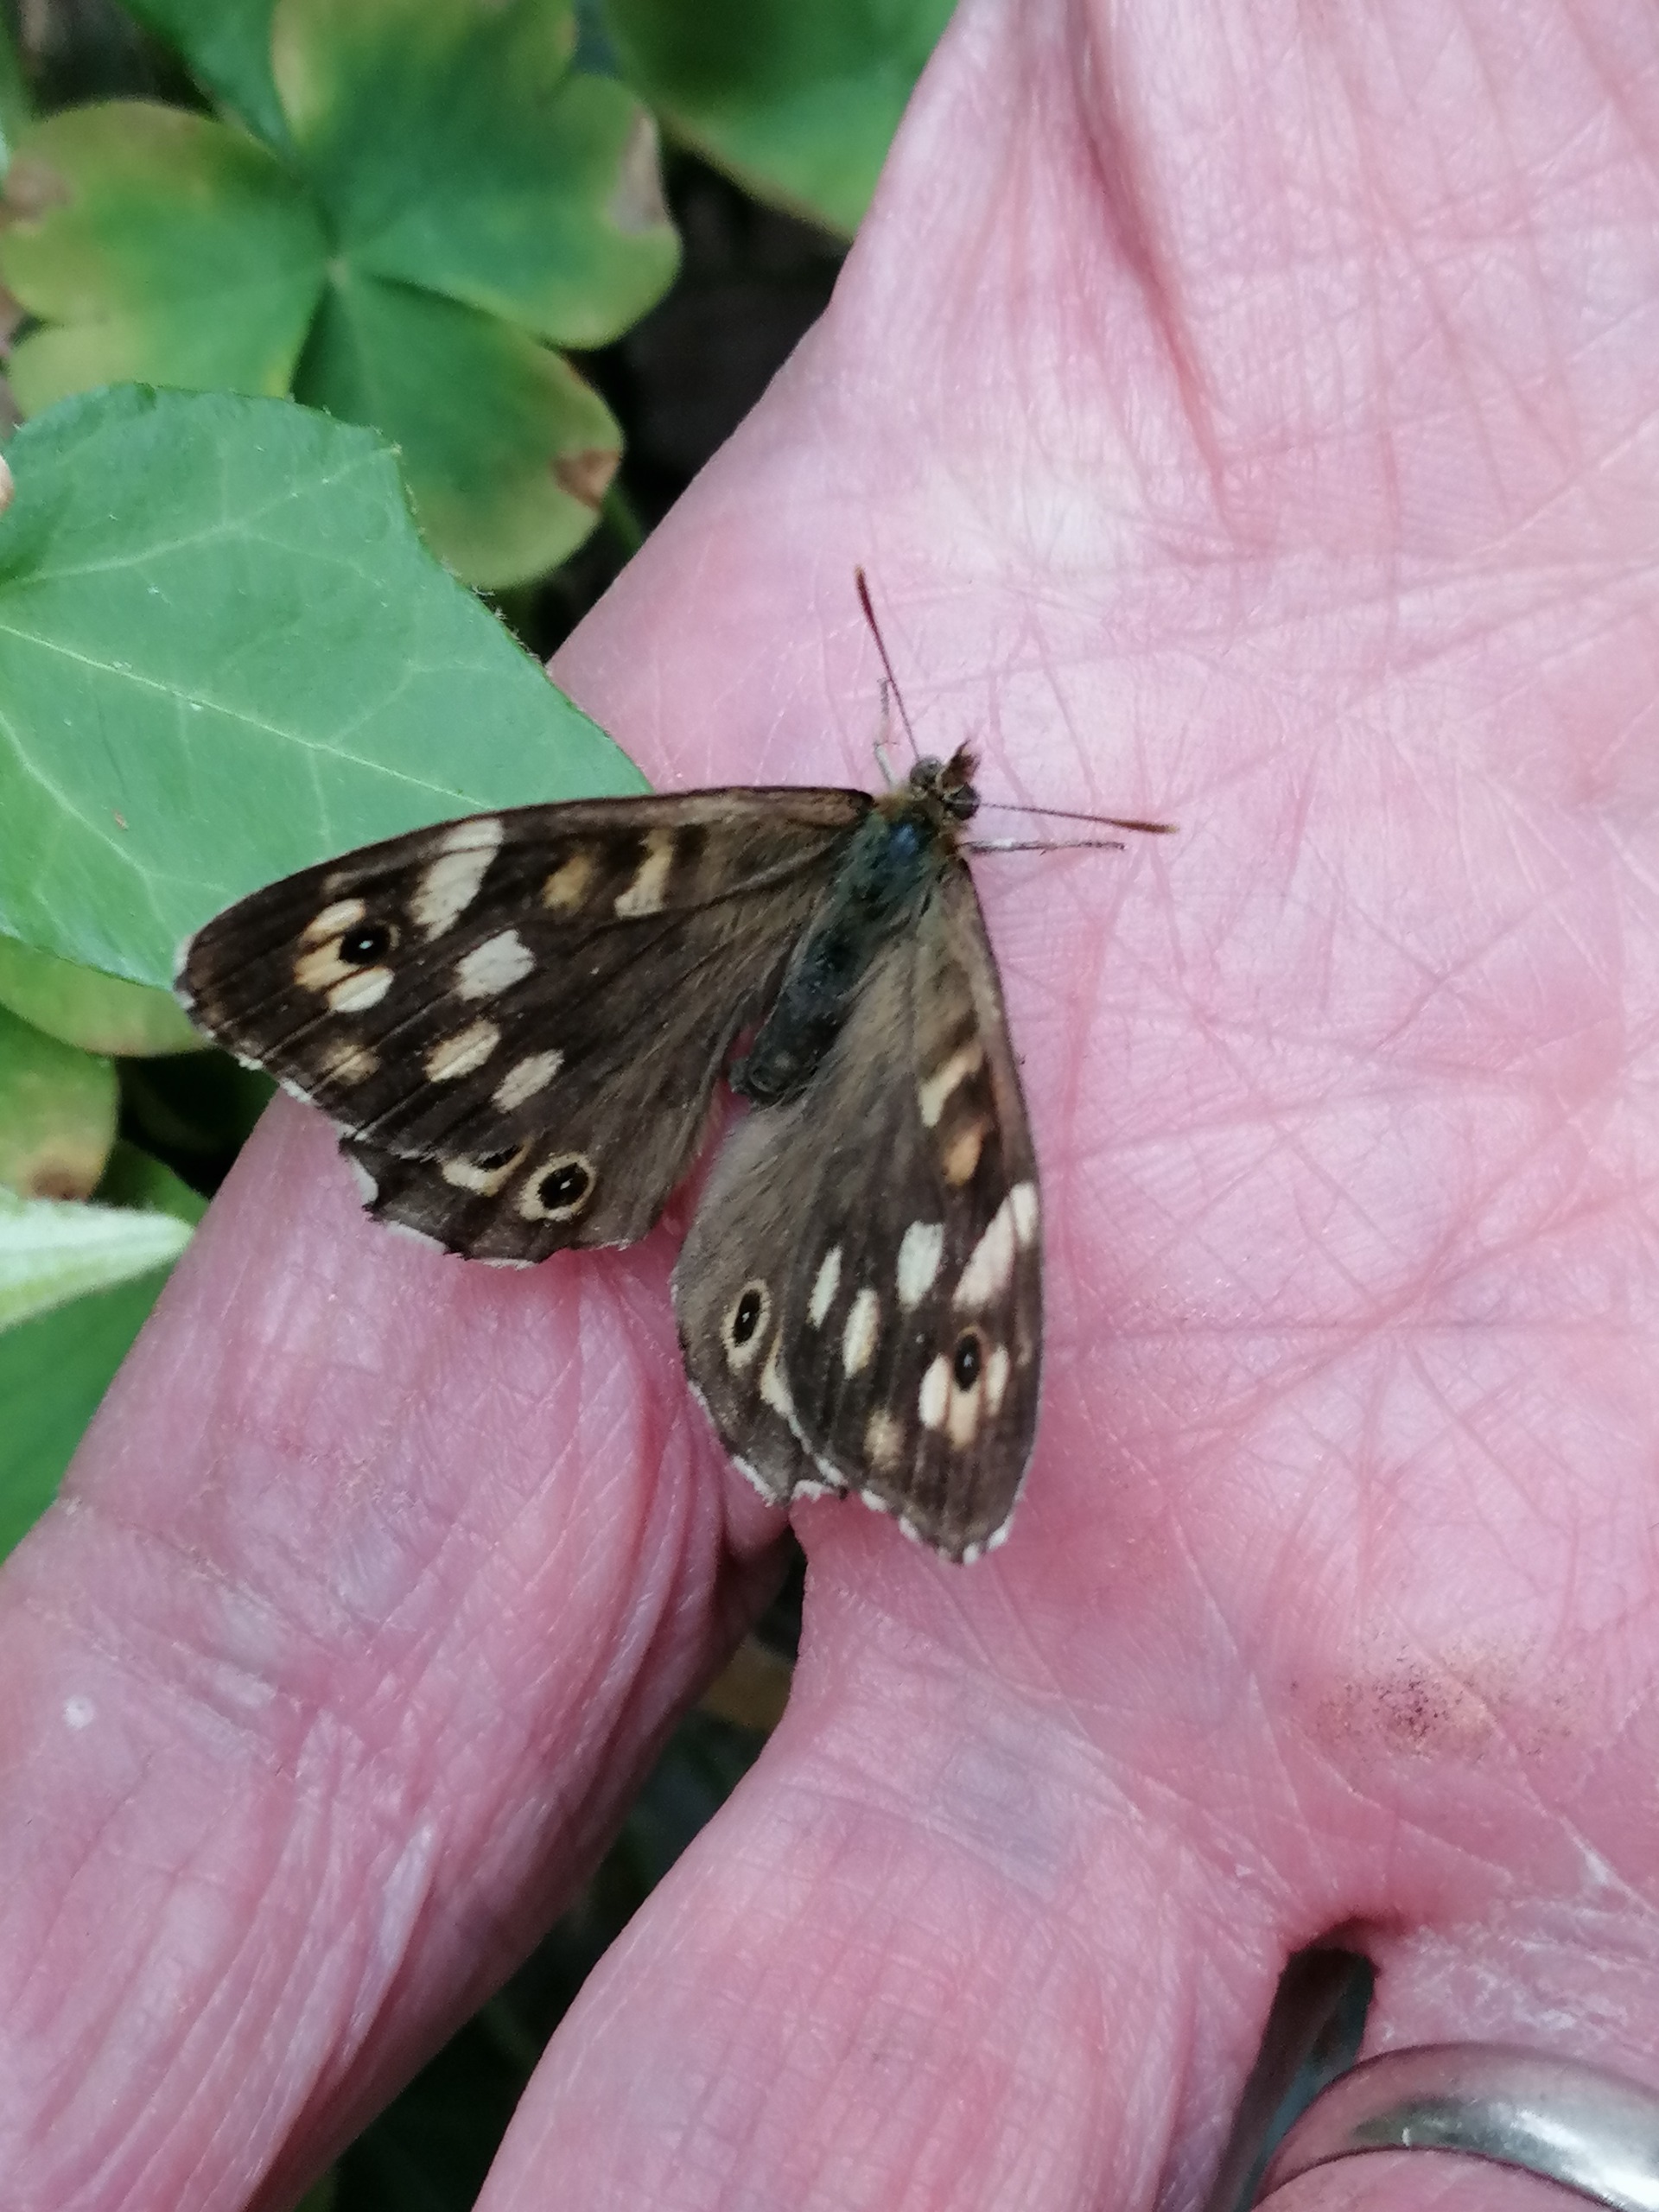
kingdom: Animalia
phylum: Arthropoda
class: Insecta
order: Lepidoptera
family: Nymphalidae
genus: Pararge
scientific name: Pararge aegeria
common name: Skovrandøje
